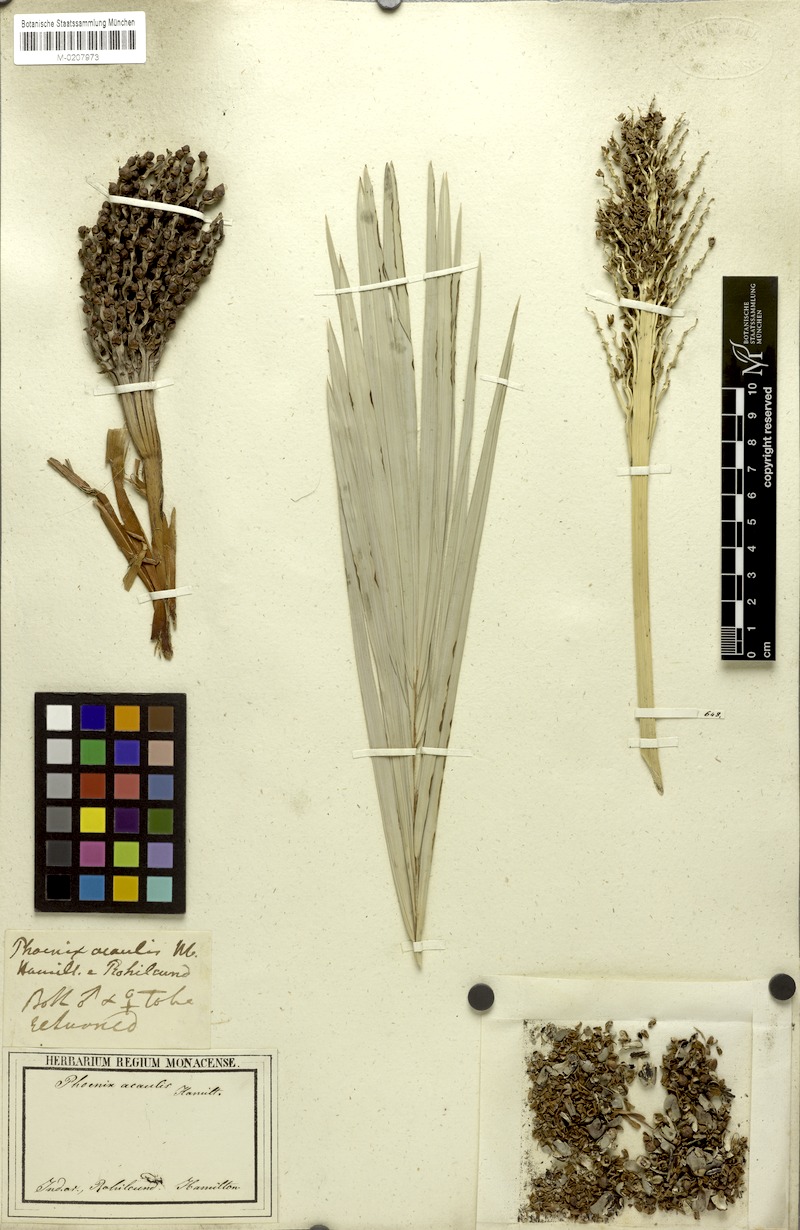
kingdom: Plantae
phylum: Tracheophyta
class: Liliopsida
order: Arecales
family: Arecaceae
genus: Phoenix
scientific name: Phoenix acaulis
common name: Stemless date palm
